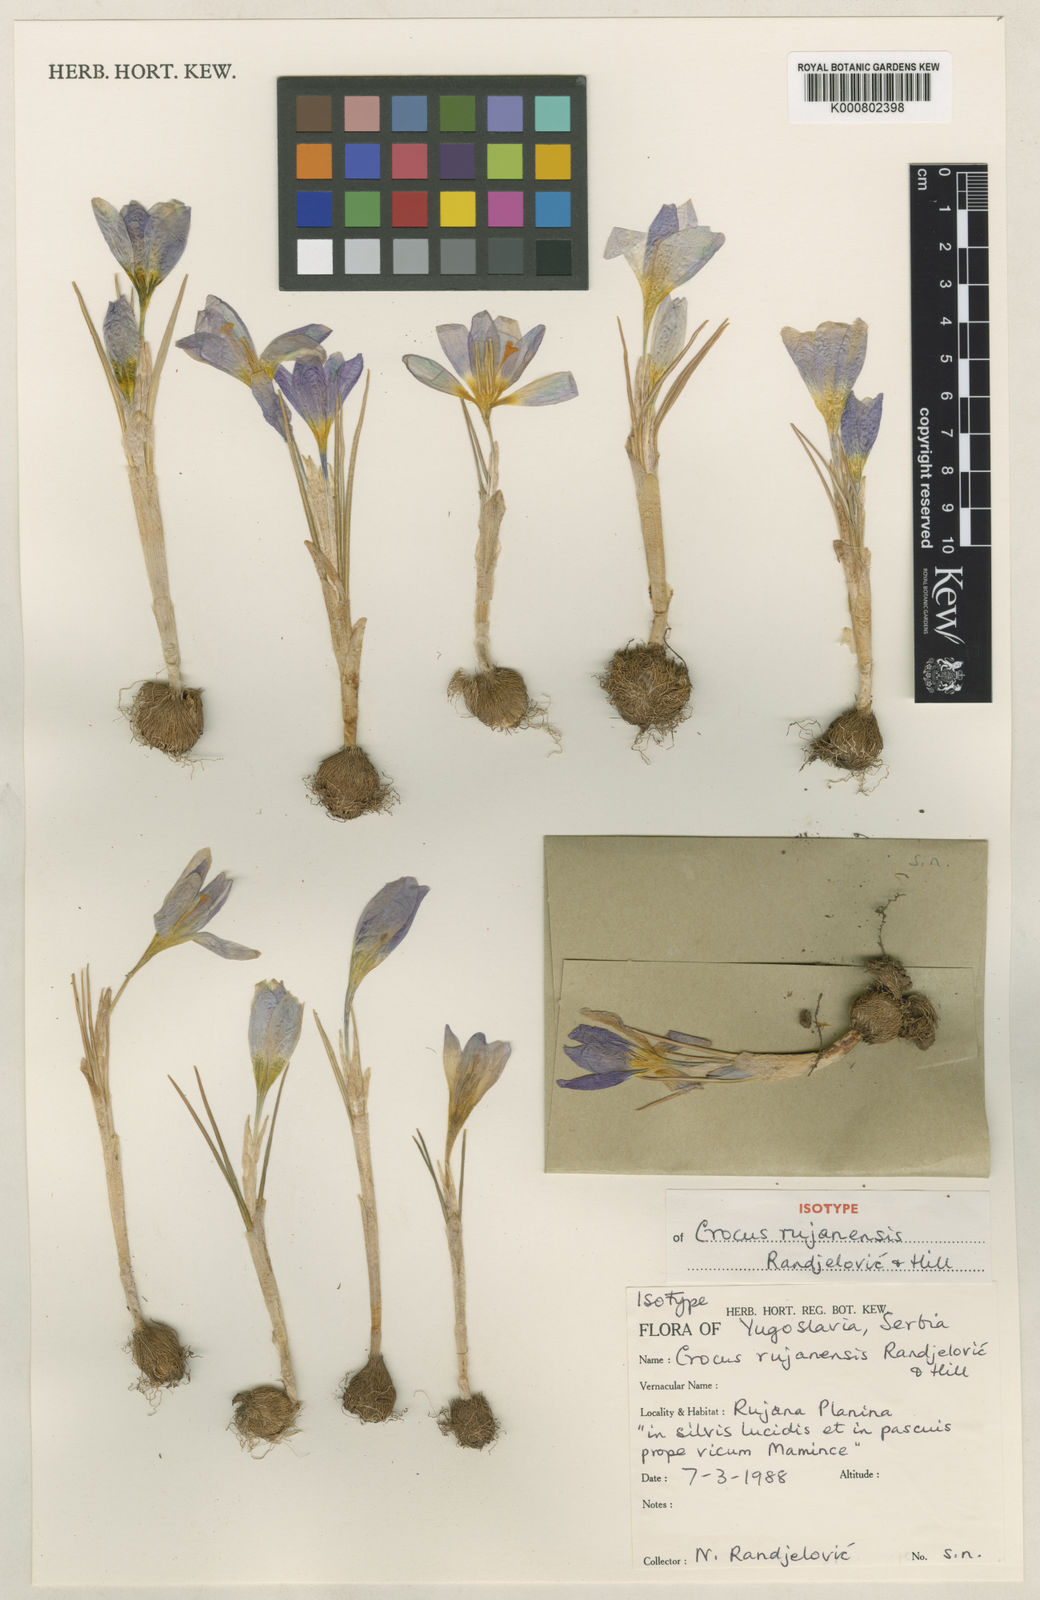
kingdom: Plantae
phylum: Tracheophyta
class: Liliopsida
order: Asparagales
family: Iridaceae
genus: Crocus
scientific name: Crocus rujanensis
